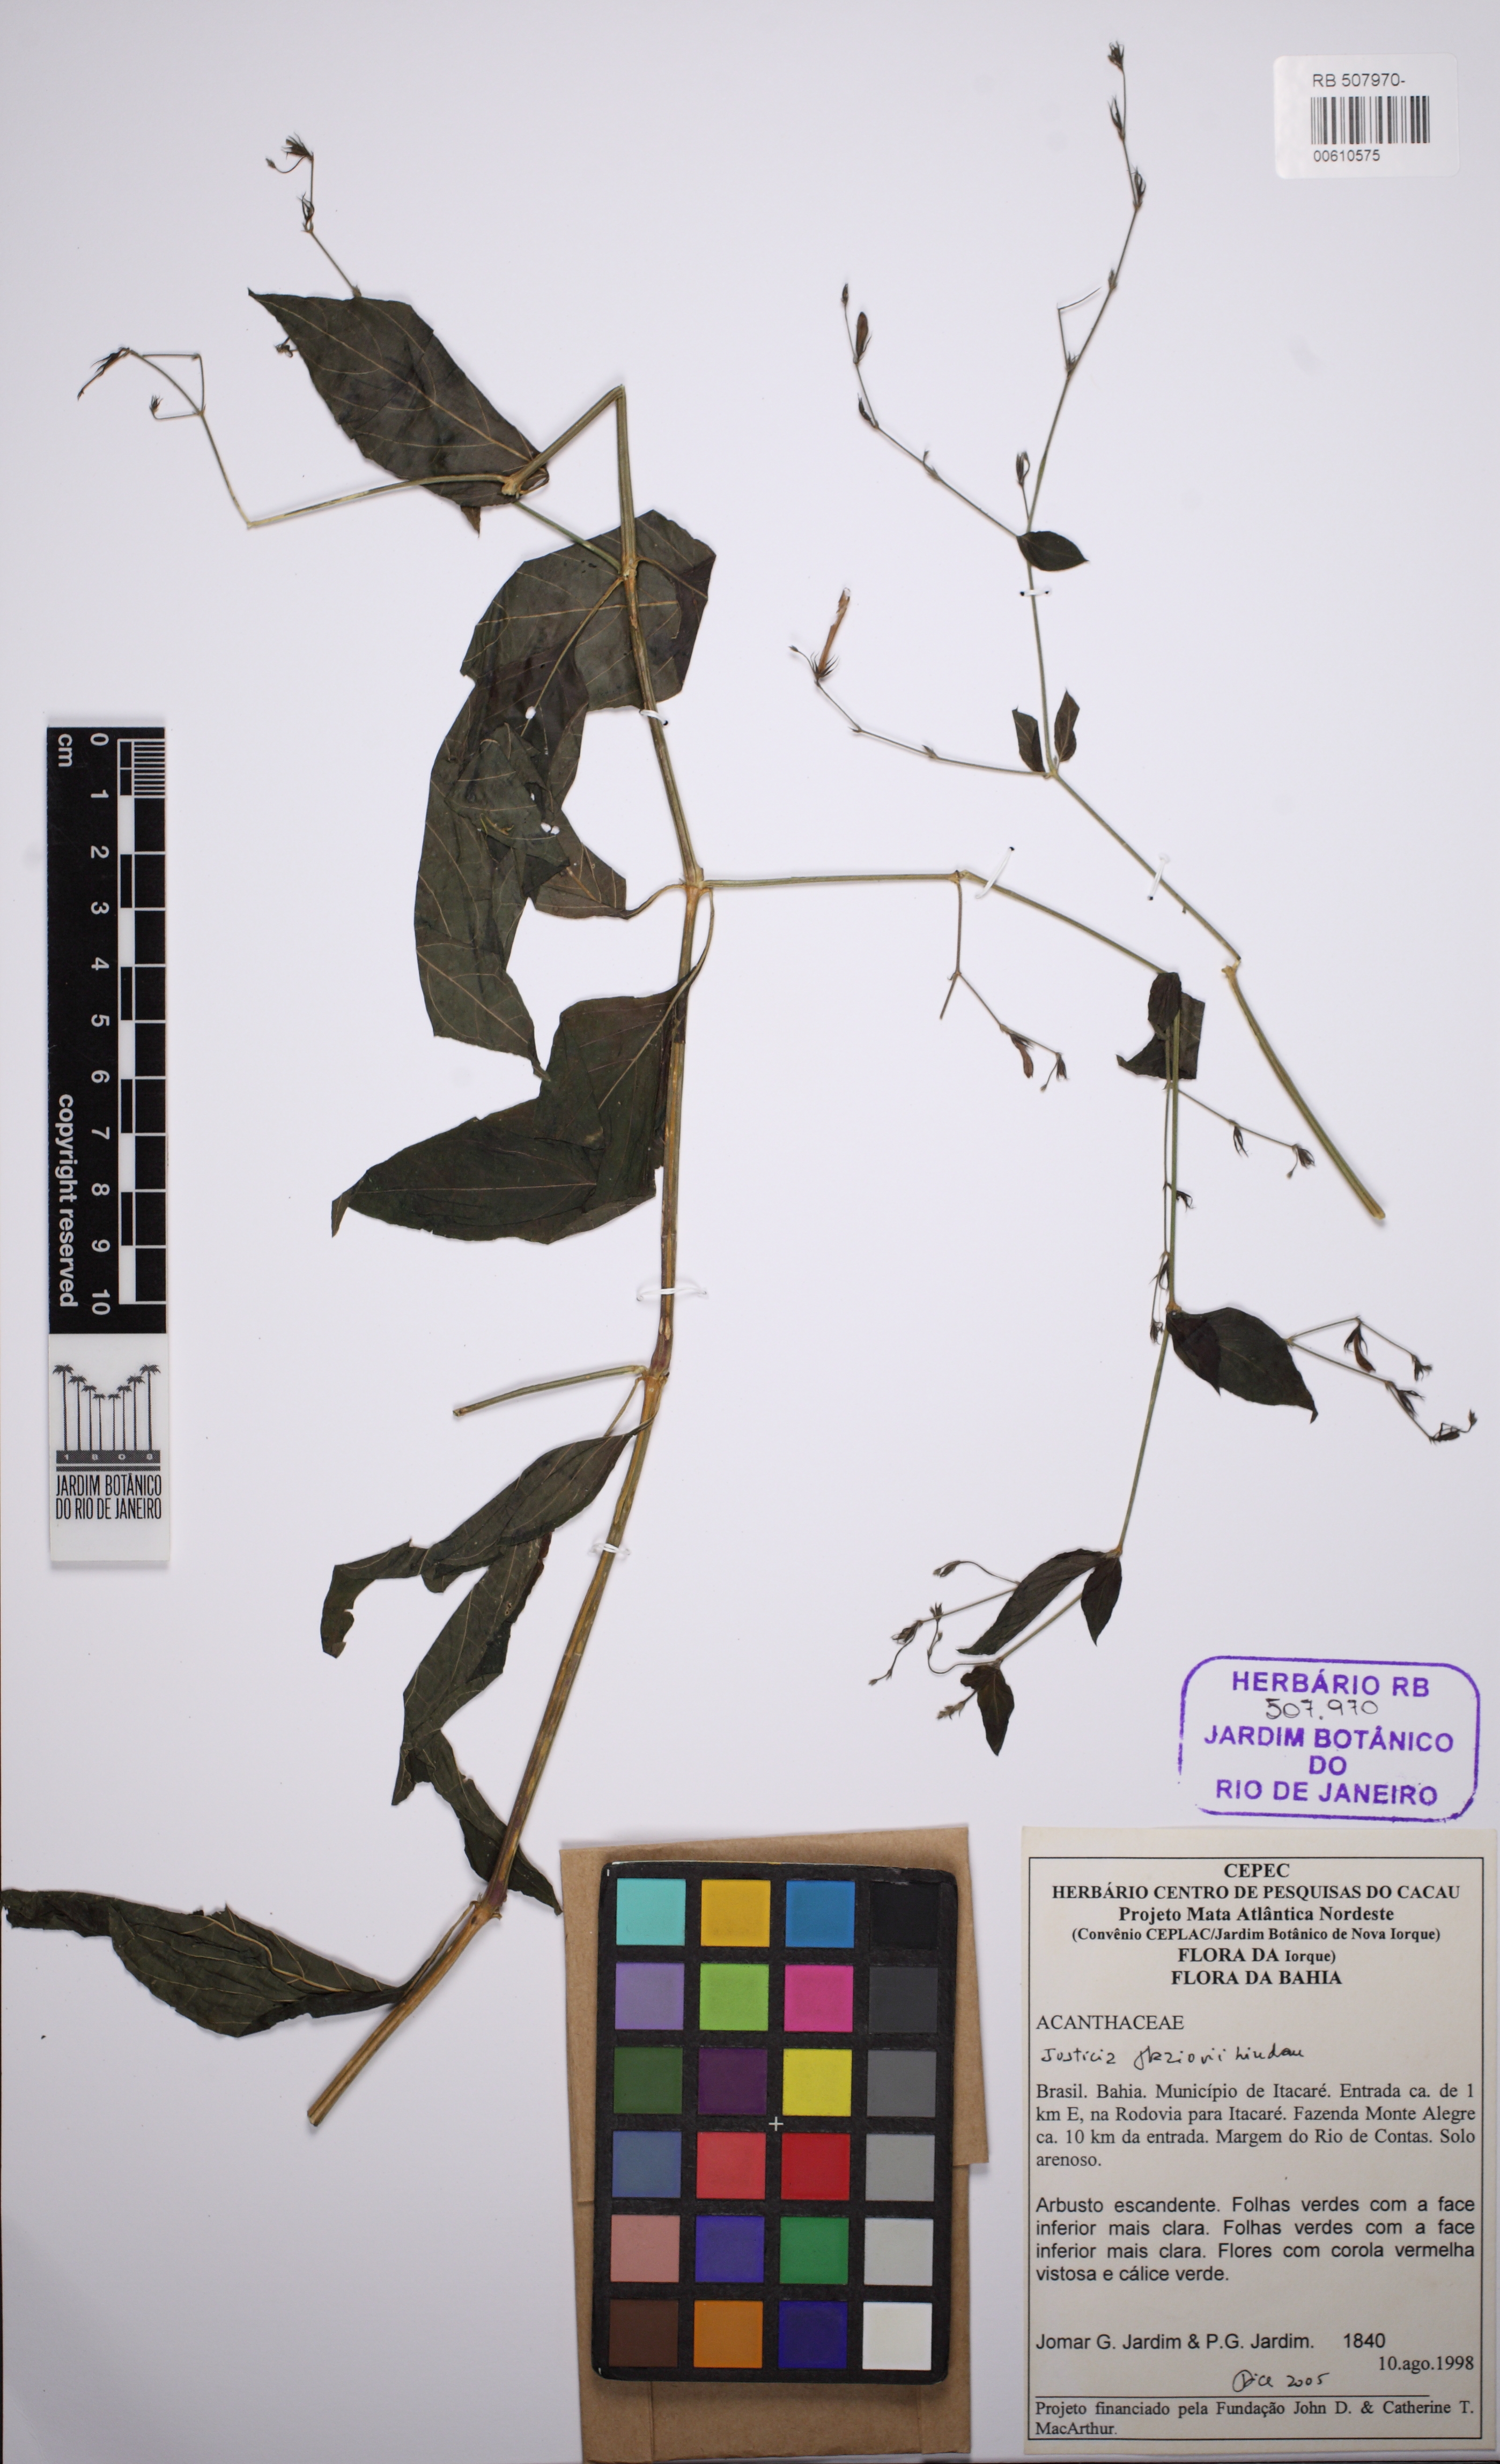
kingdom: Plantae
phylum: Tracheophyta
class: Magnoliopsida
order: Lamiales
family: Acanthaceae
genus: Justicia
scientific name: Justicia rubriflora
